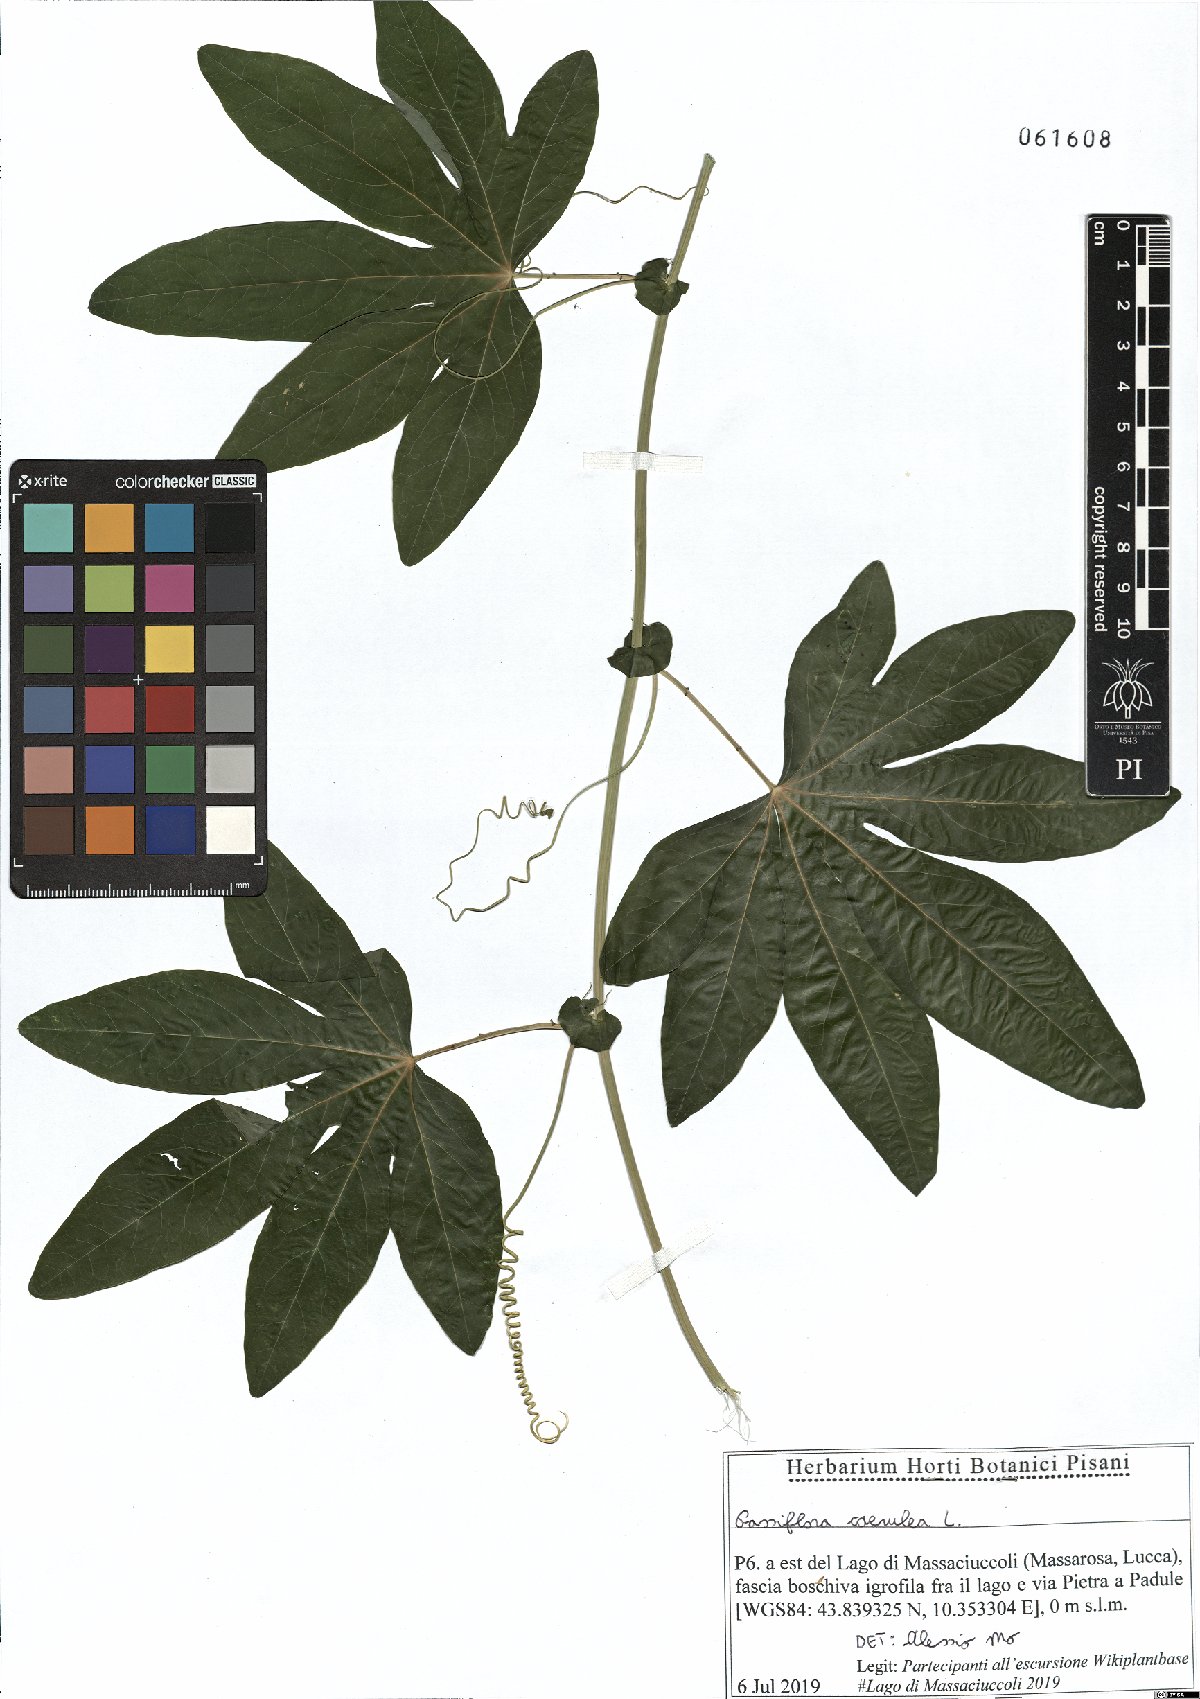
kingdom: Plantae
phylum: Tracheophyta
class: Magnoliopsida
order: Malpighiales
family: Passifloraceae
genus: Passiflora
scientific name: Passiflora caerulea
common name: Blue passionflower
